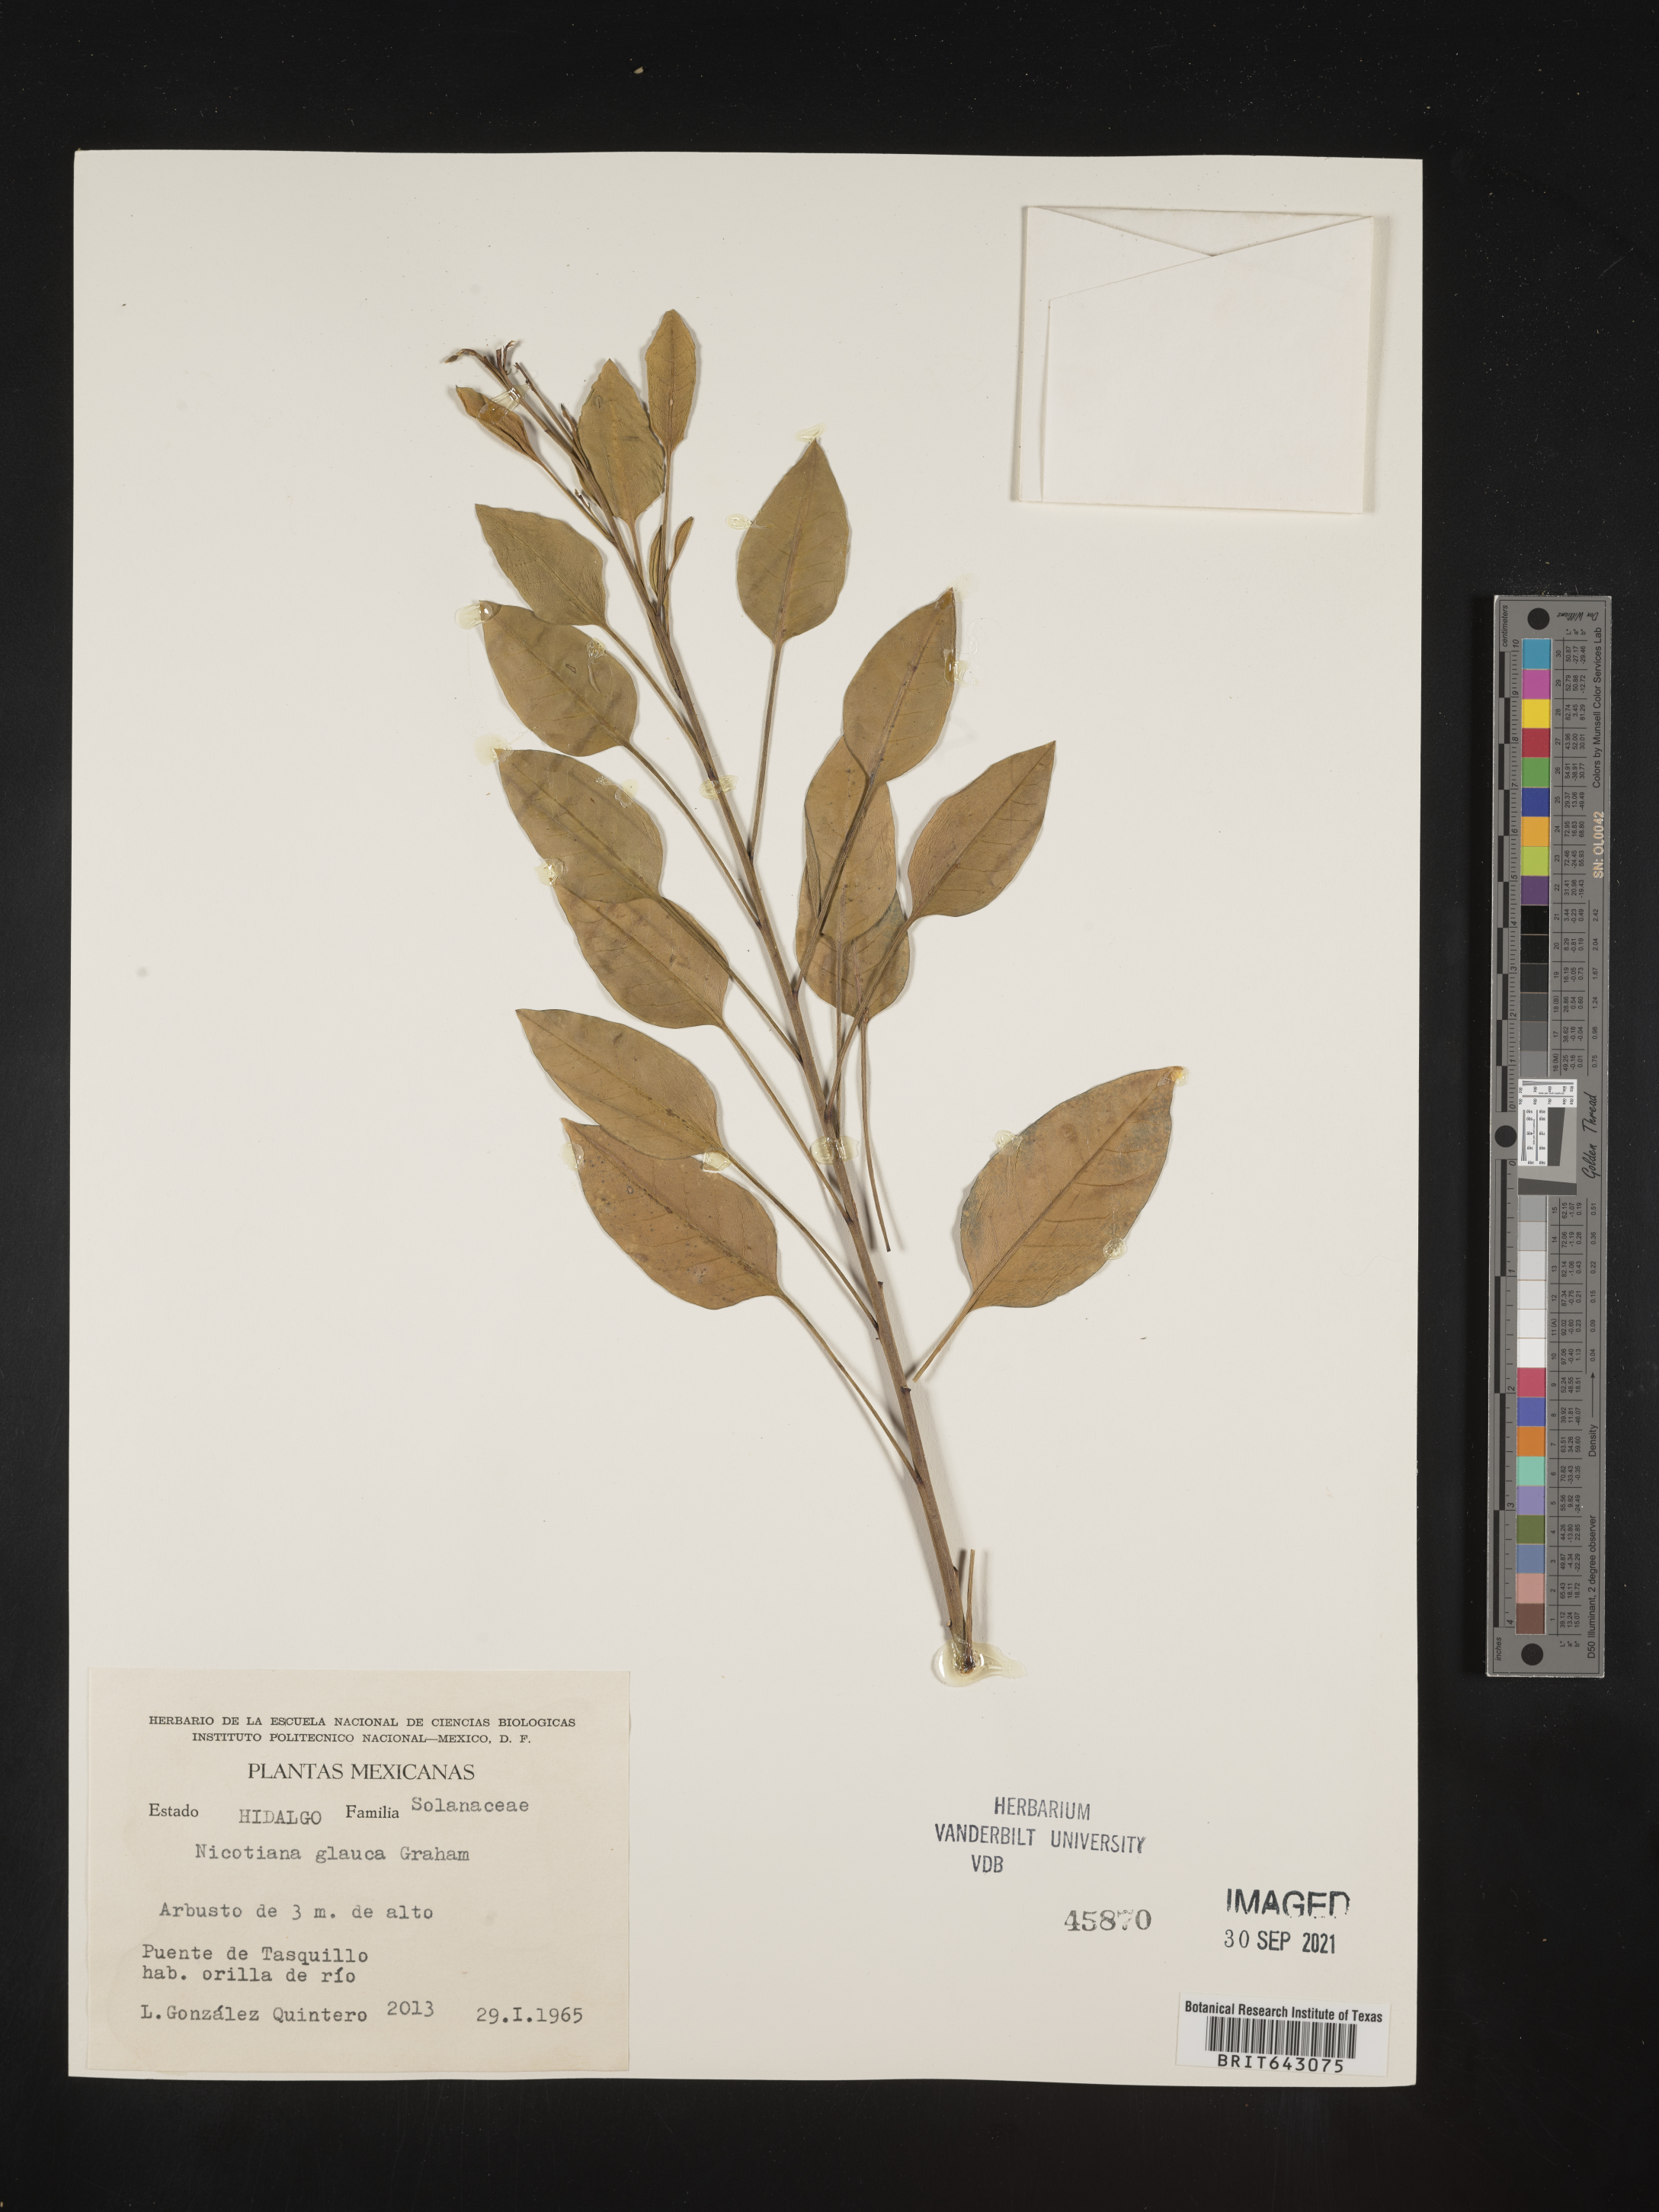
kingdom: Plantae
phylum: Tracheophyta
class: Magnoliopsida
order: Solanales
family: Solanaceae
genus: Nicotiana
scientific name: Nicotiana
